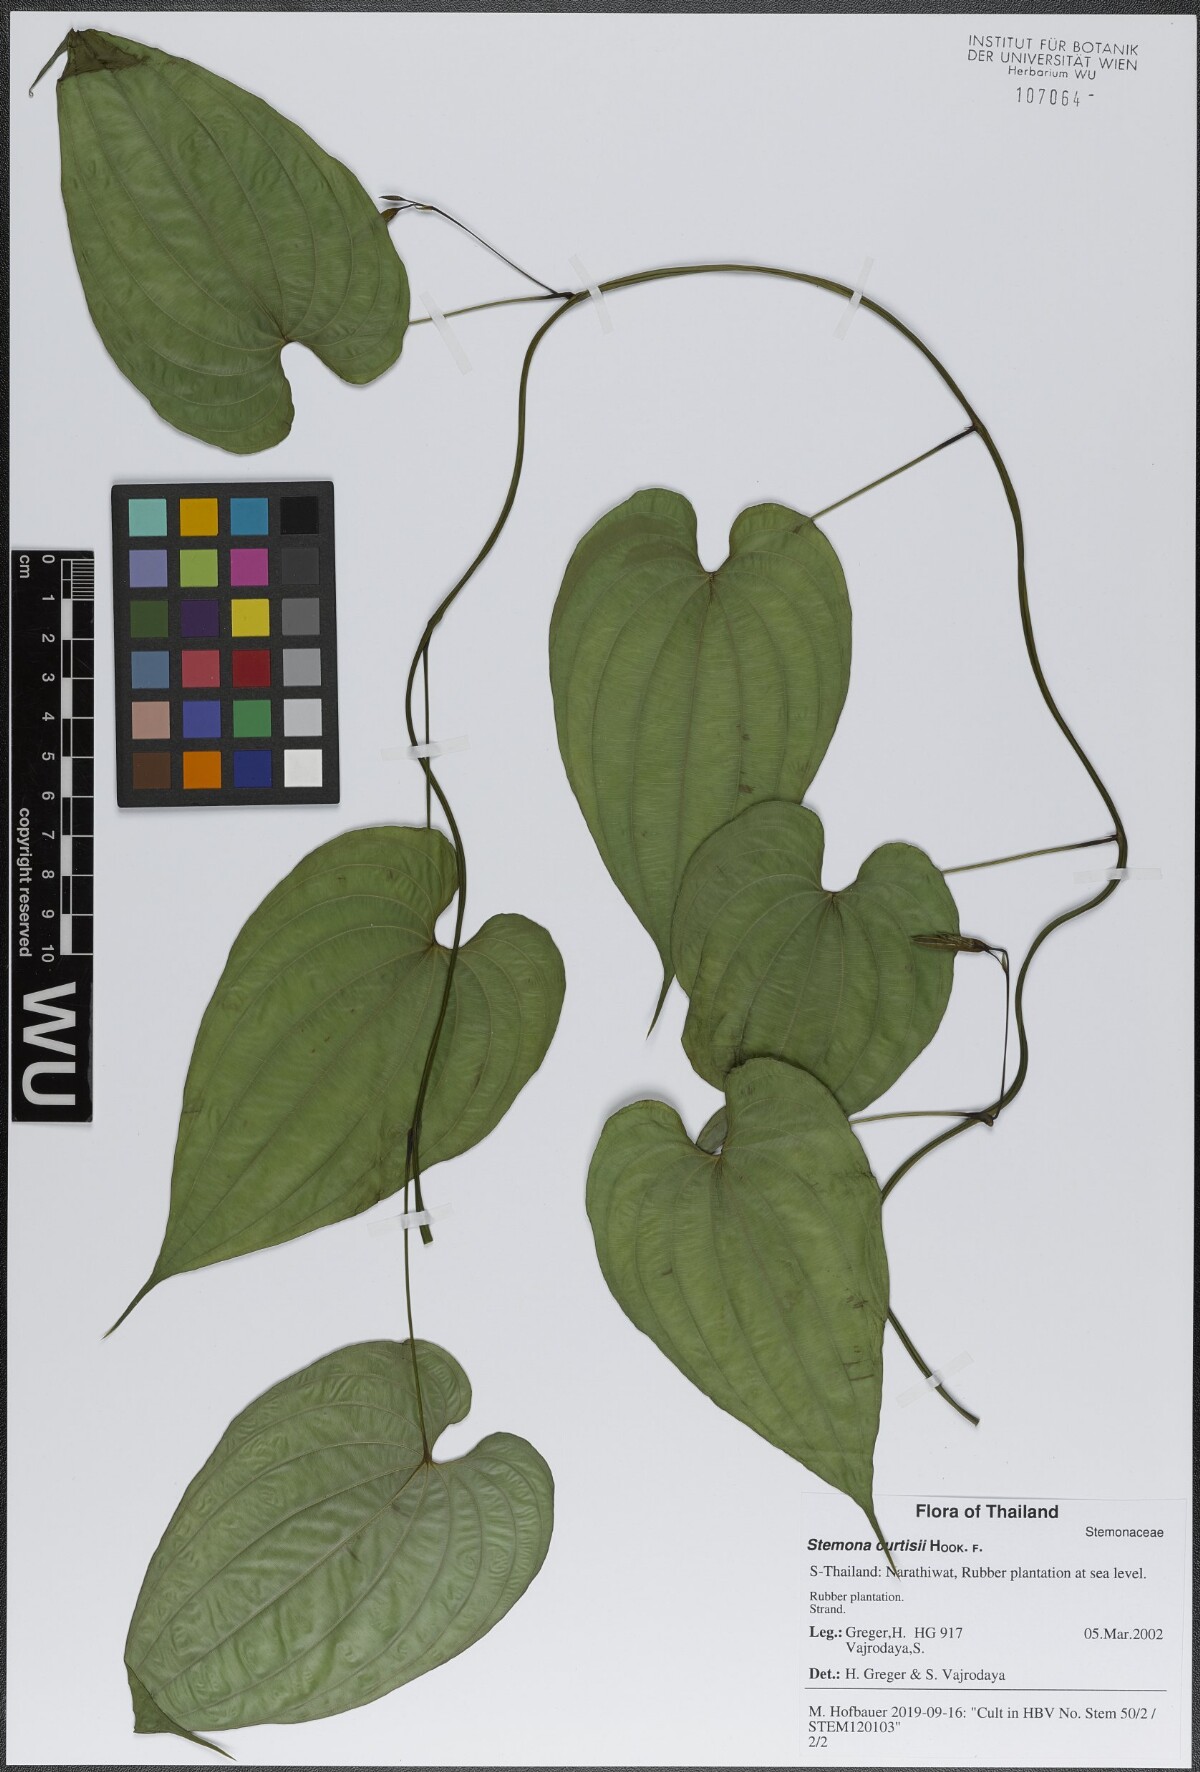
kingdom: Plantae
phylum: Tracheophyta
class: Liliopsida
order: Pandanales
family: Stemonaceae
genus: Stemona
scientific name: Stemona curtisii
